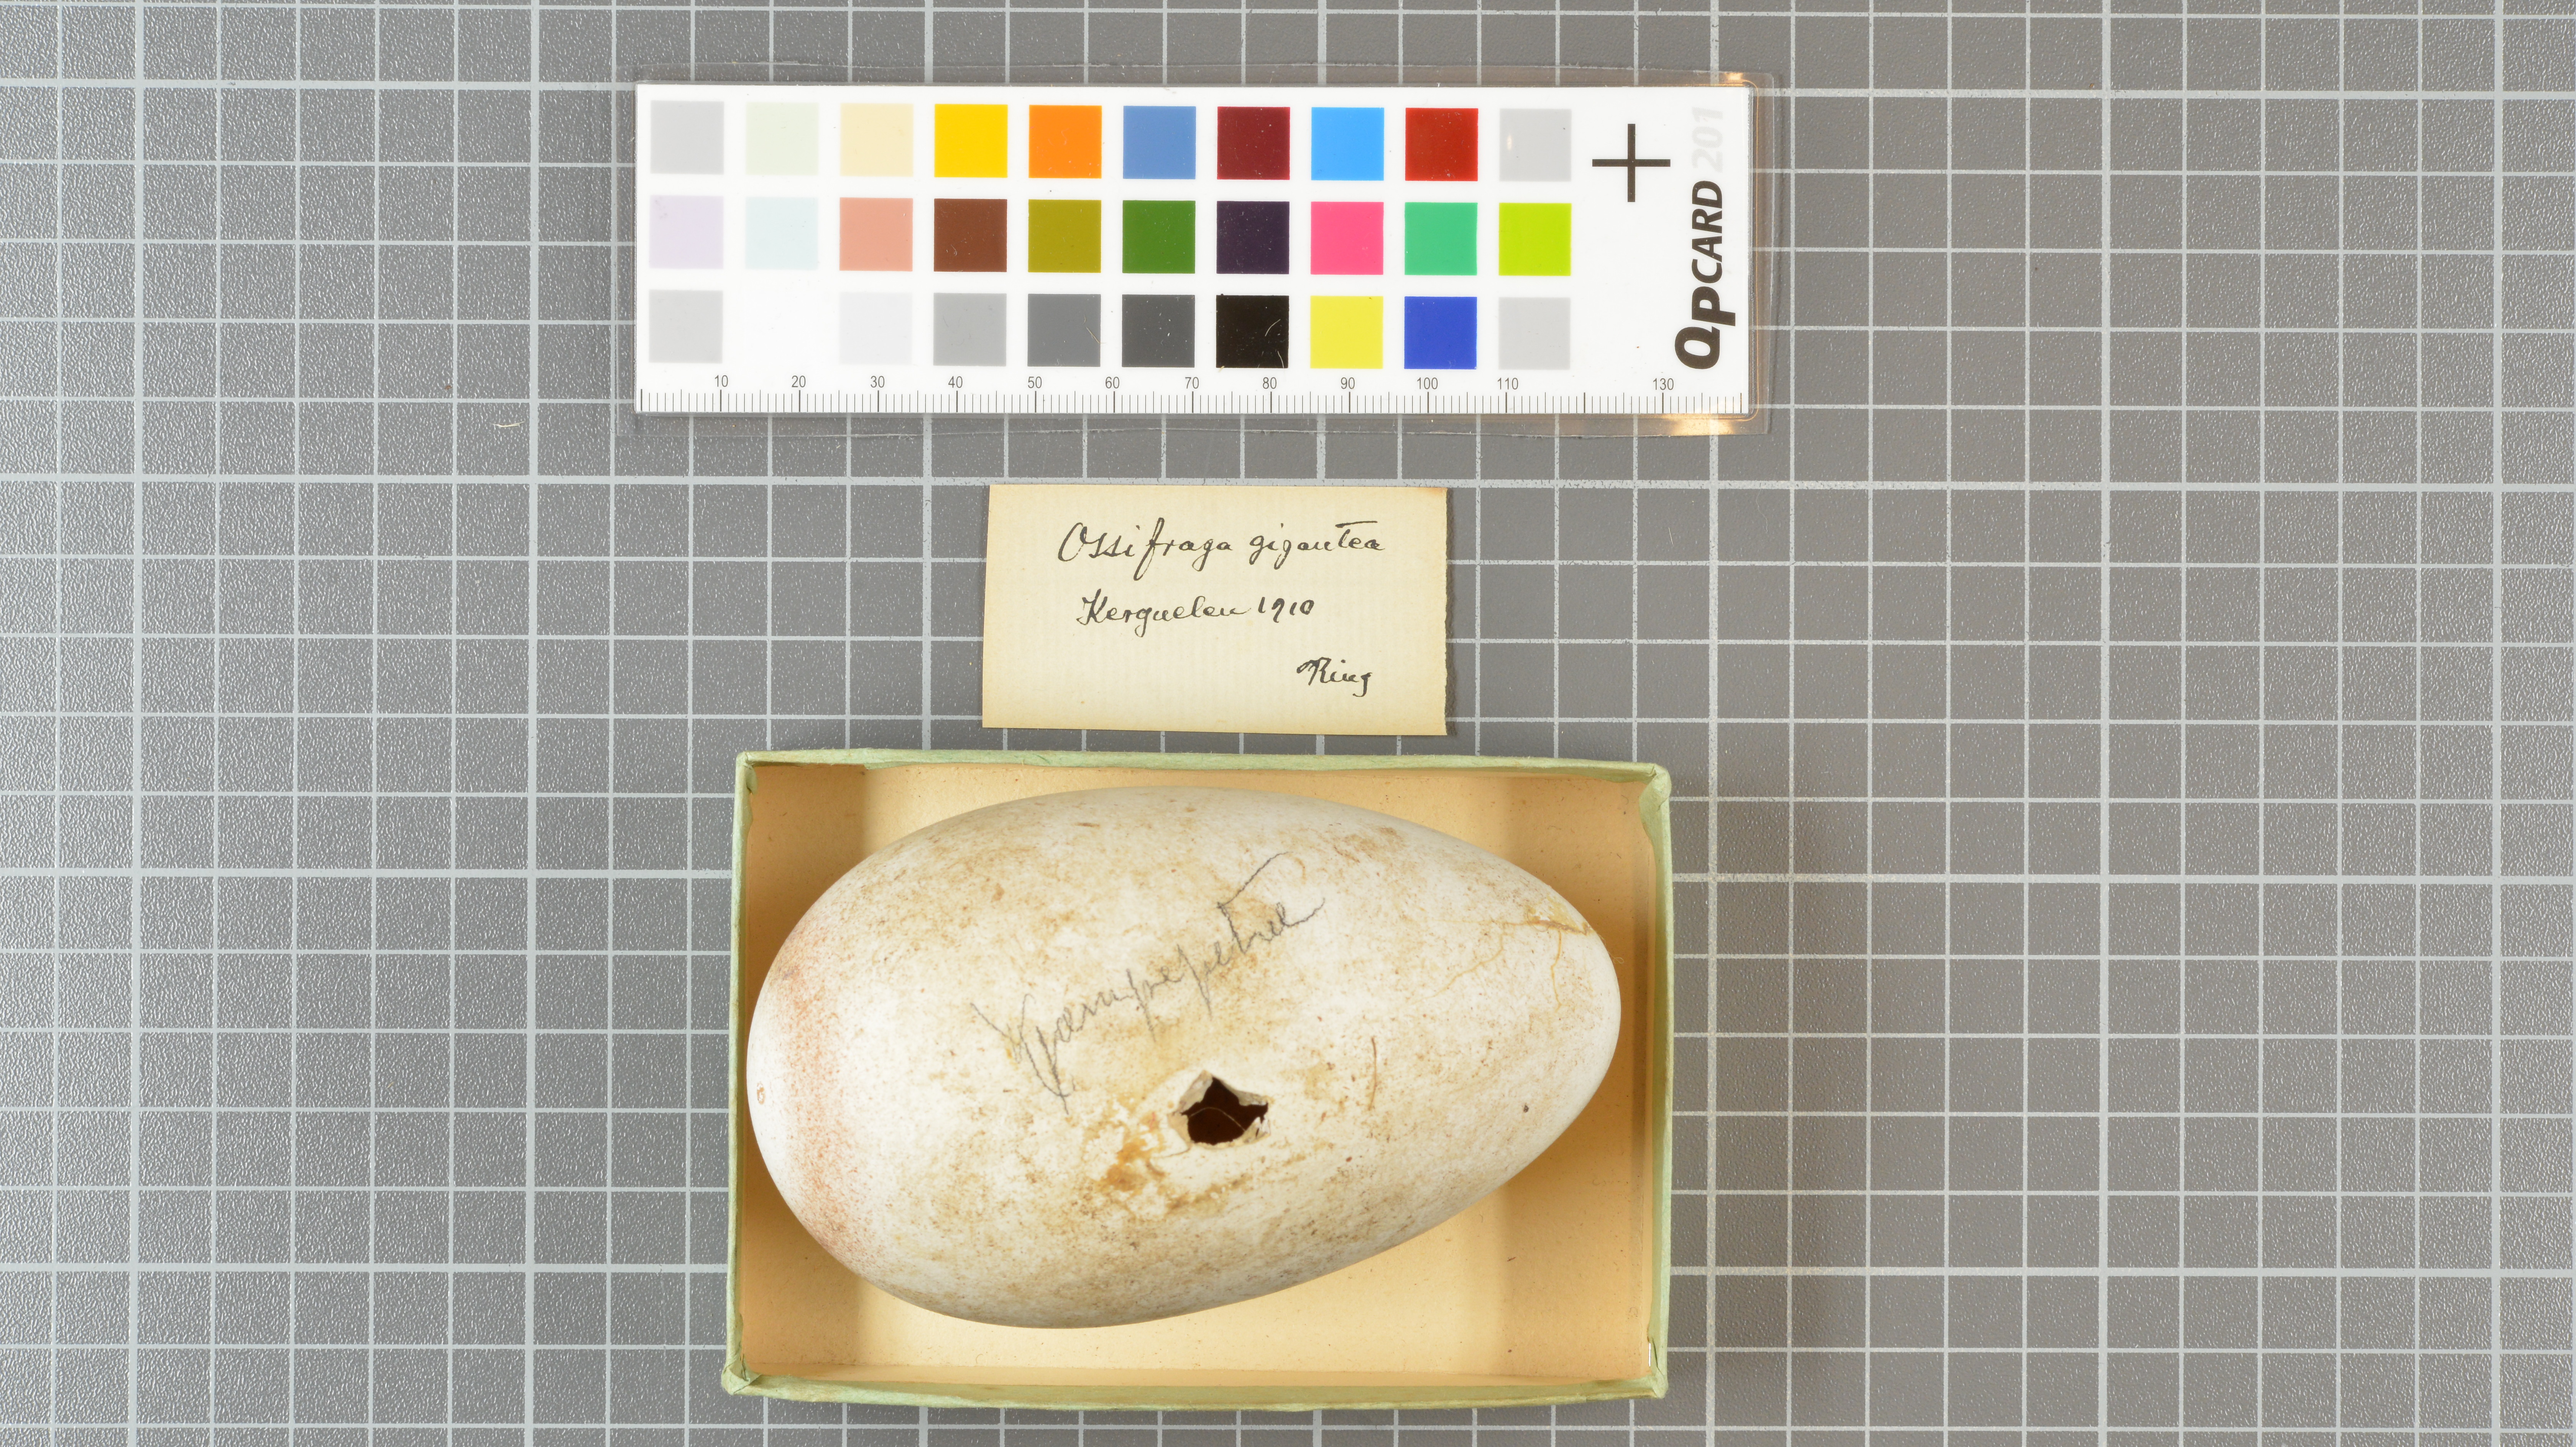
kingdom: Animalia
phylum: Chordata
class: Aves
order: Procellariiformes
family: Procellariidae
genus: Macronectes
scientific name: Macronectes giganteus
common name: Southern giant petrel
